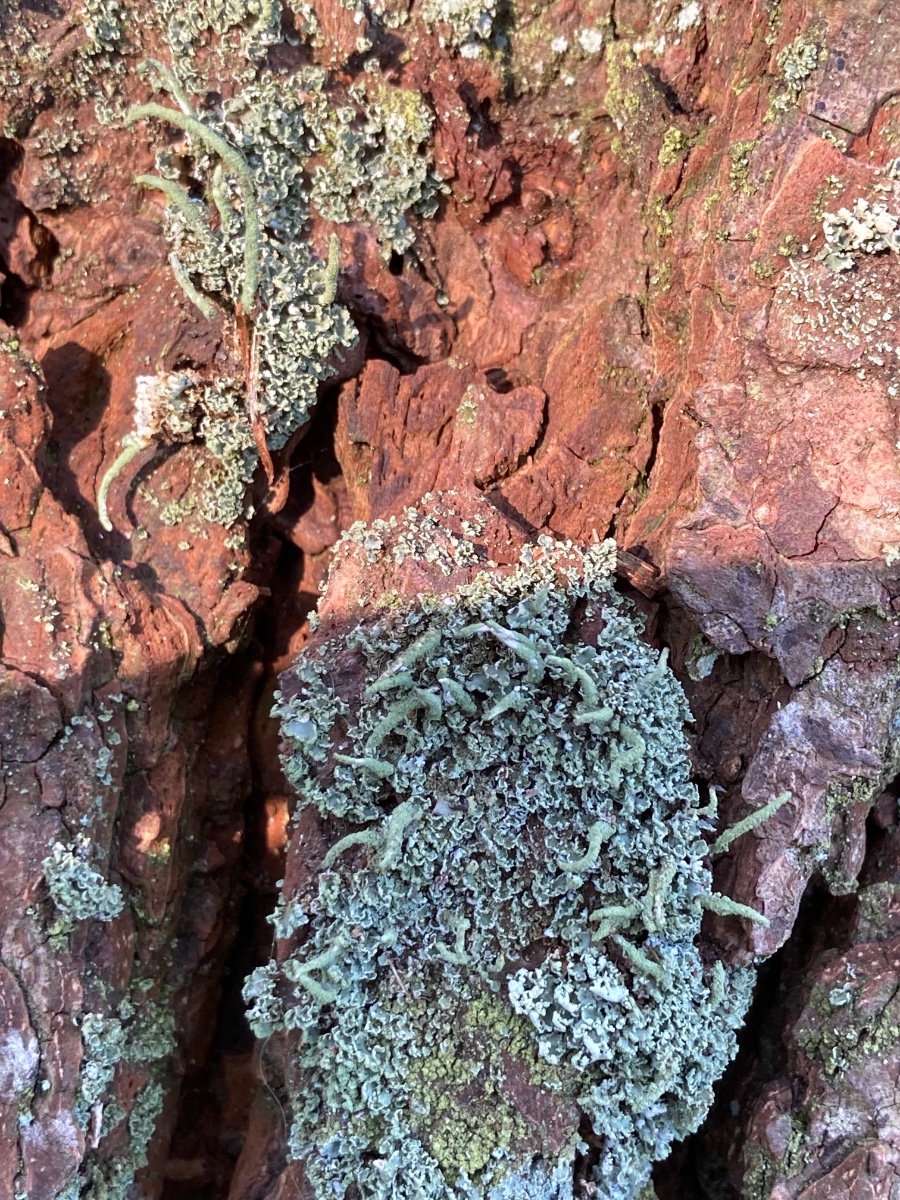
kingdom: Fungi
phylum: Ascomycota
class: Lecanoromycetes
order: Lecanorales
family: Cladoniaceae
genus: Cladonia
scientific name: Cladonia coniocraea
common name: træfods-bægerlav
